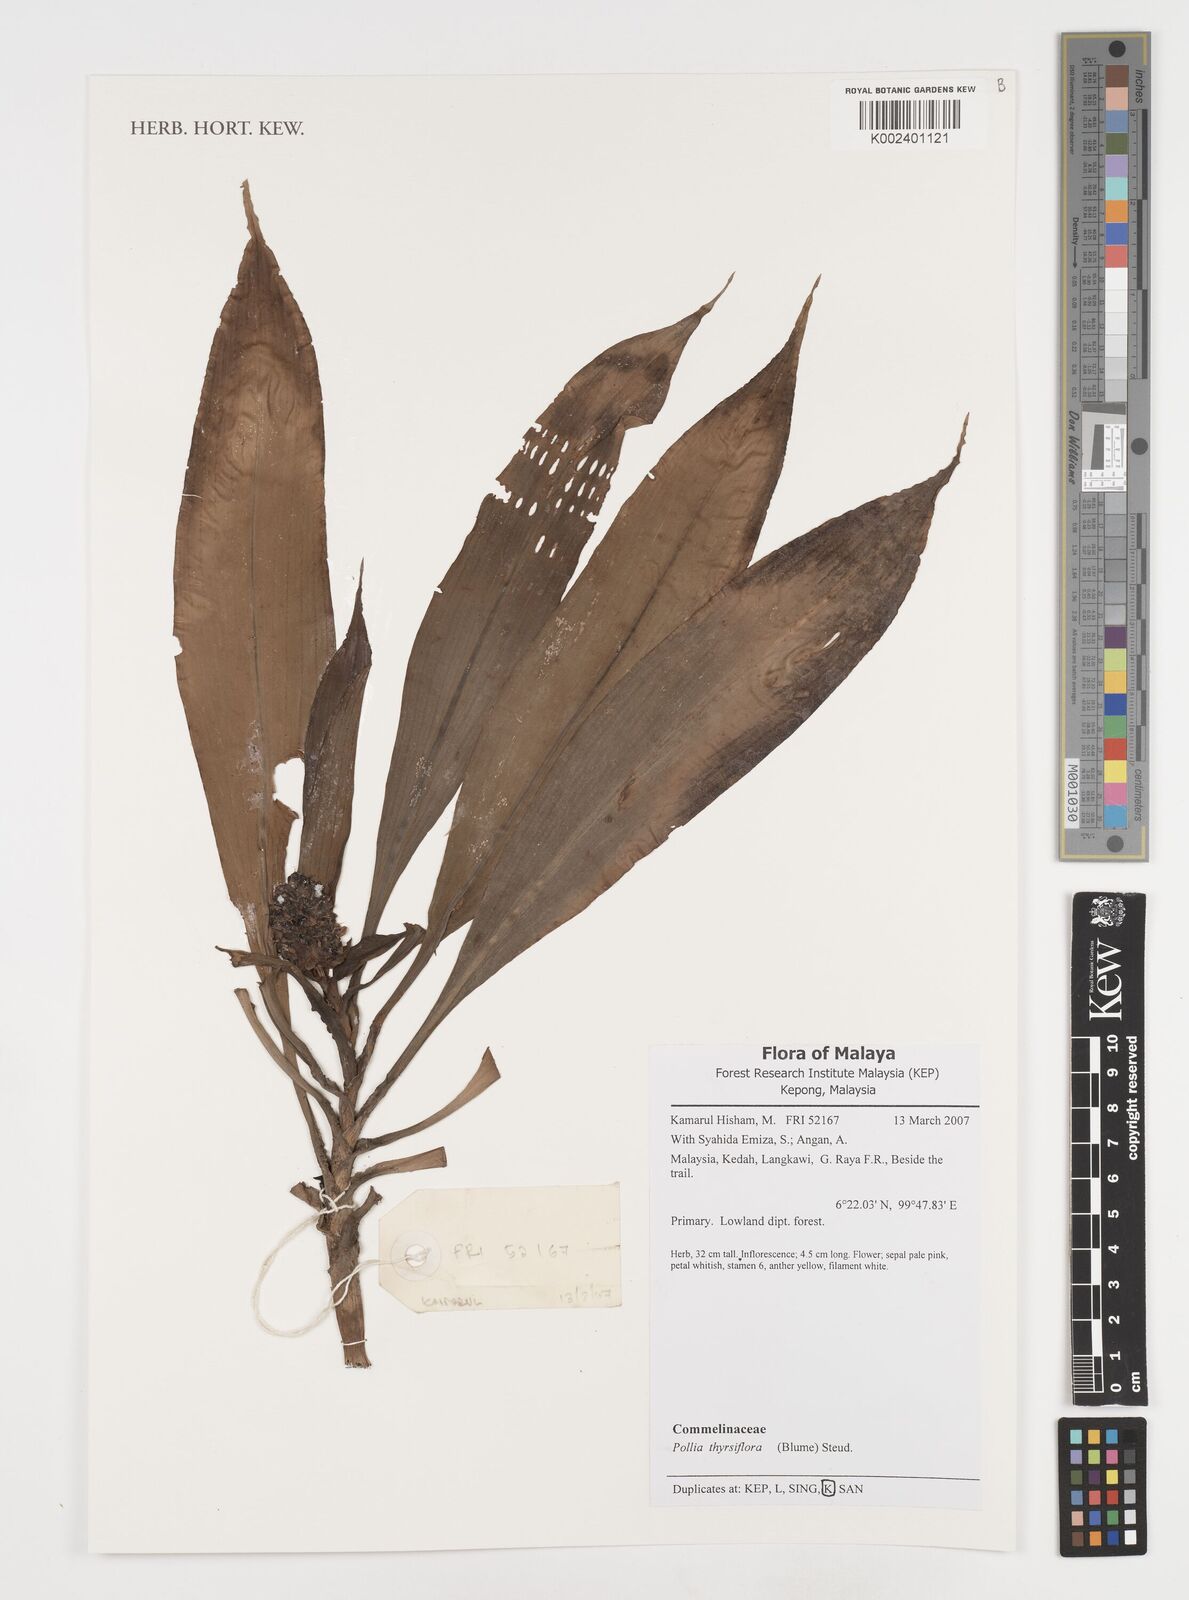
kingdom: Plantae
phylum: Tracheophyta
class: Liliopsida
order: Commelinales
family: Commelinaceae
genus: Pollia
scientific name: Pollia thyrsiflora
